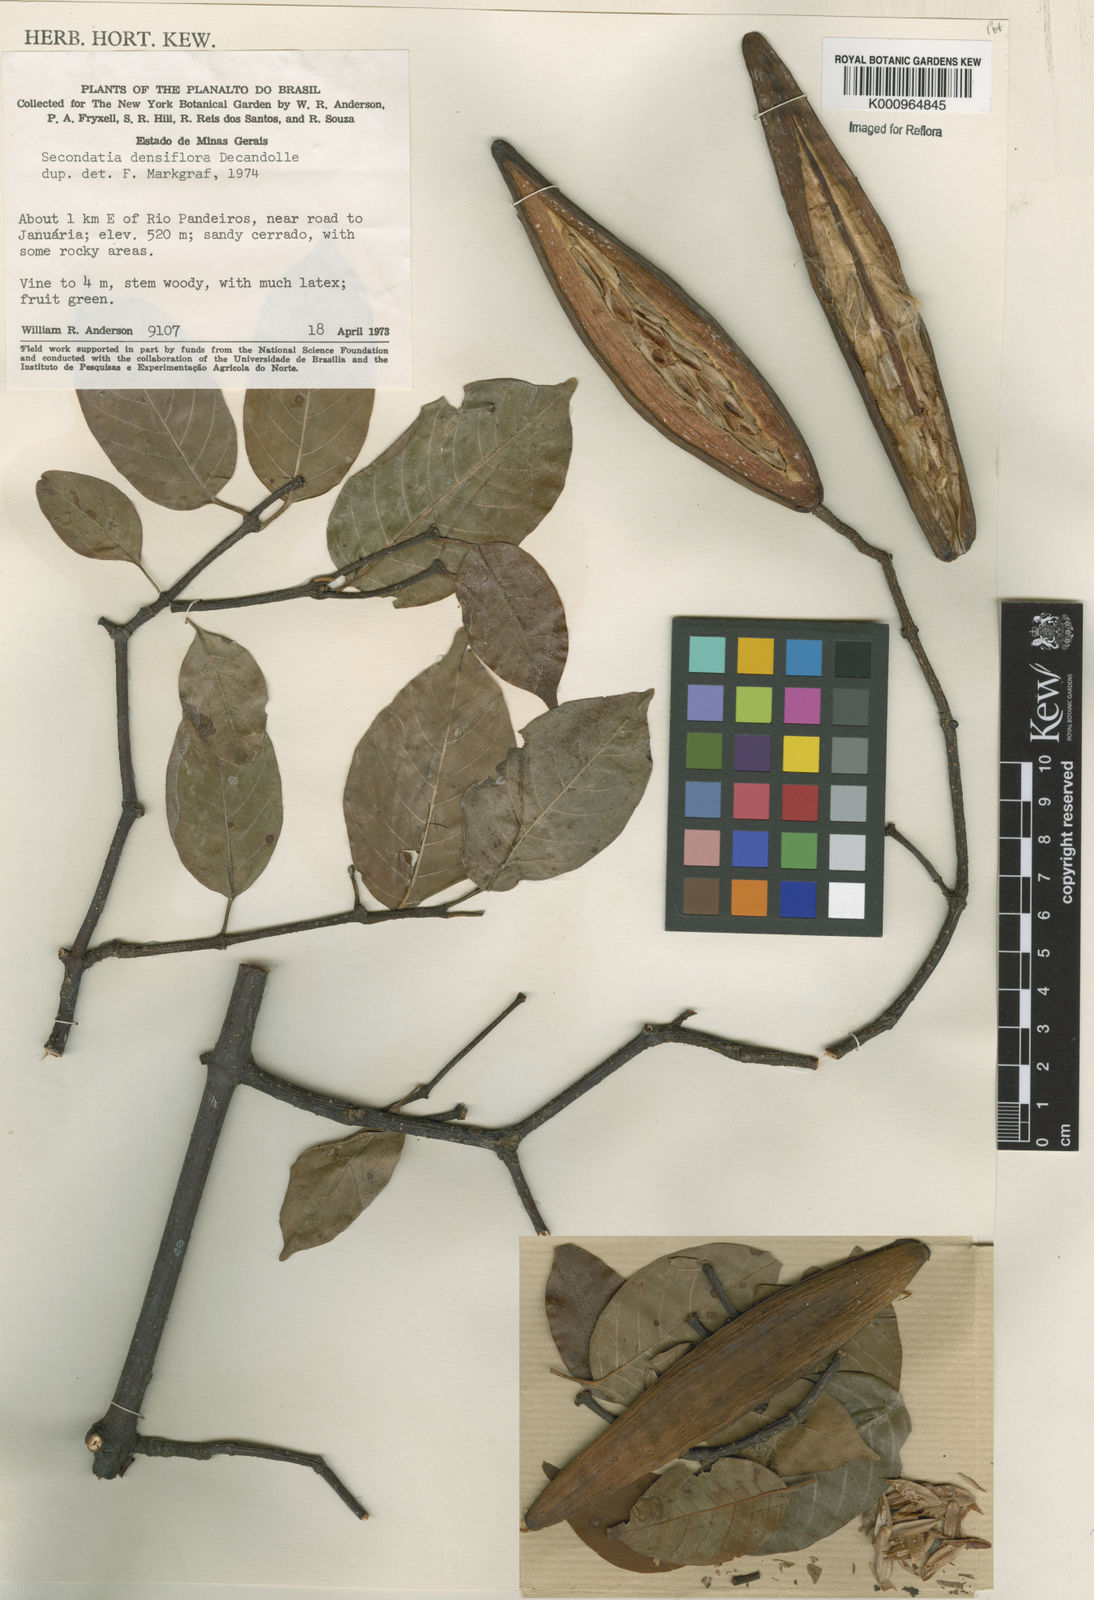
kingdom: Plantae
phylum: Tracheophyta
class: Magnoliopsida
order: Gentianales
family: Apocynaceae
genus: Secondatia
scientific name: Secondatia densiflora
